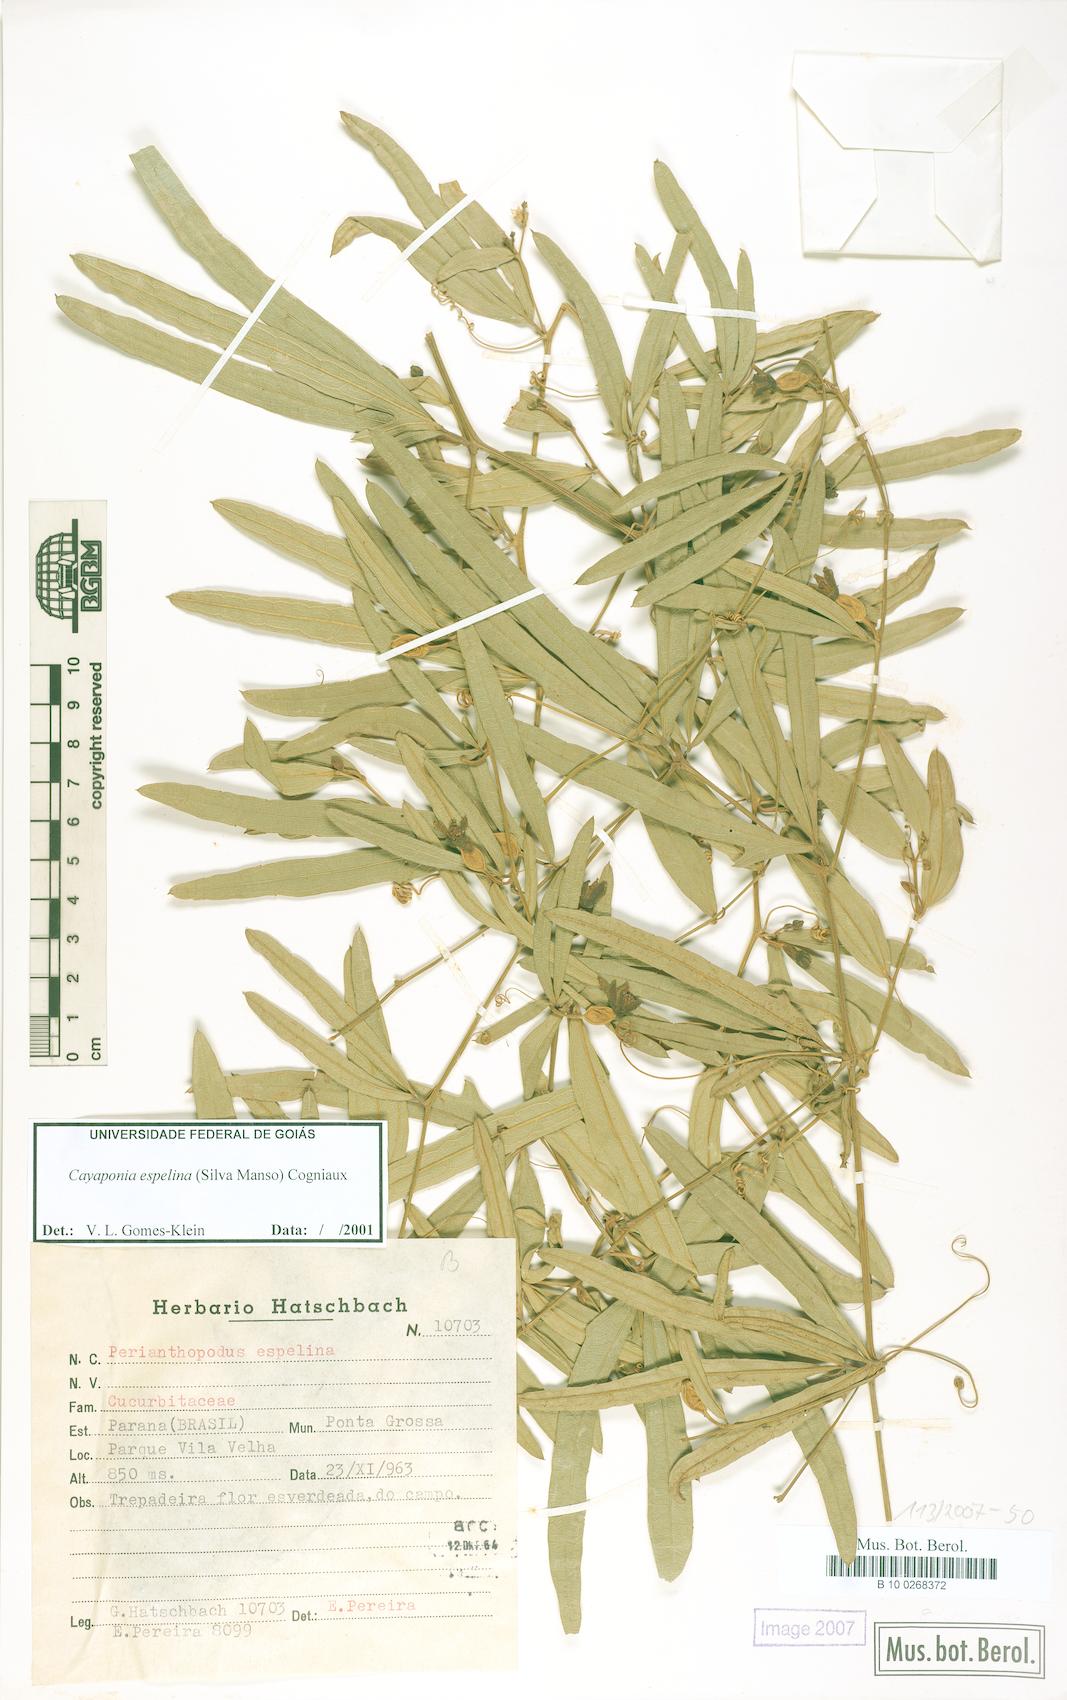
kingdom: Plantae
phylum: Tracheophyta
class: Magnoliopsida
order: Cucurbitales
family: Cucurbitaceae
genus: Cayaponia
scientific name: Cayaponia espelina
